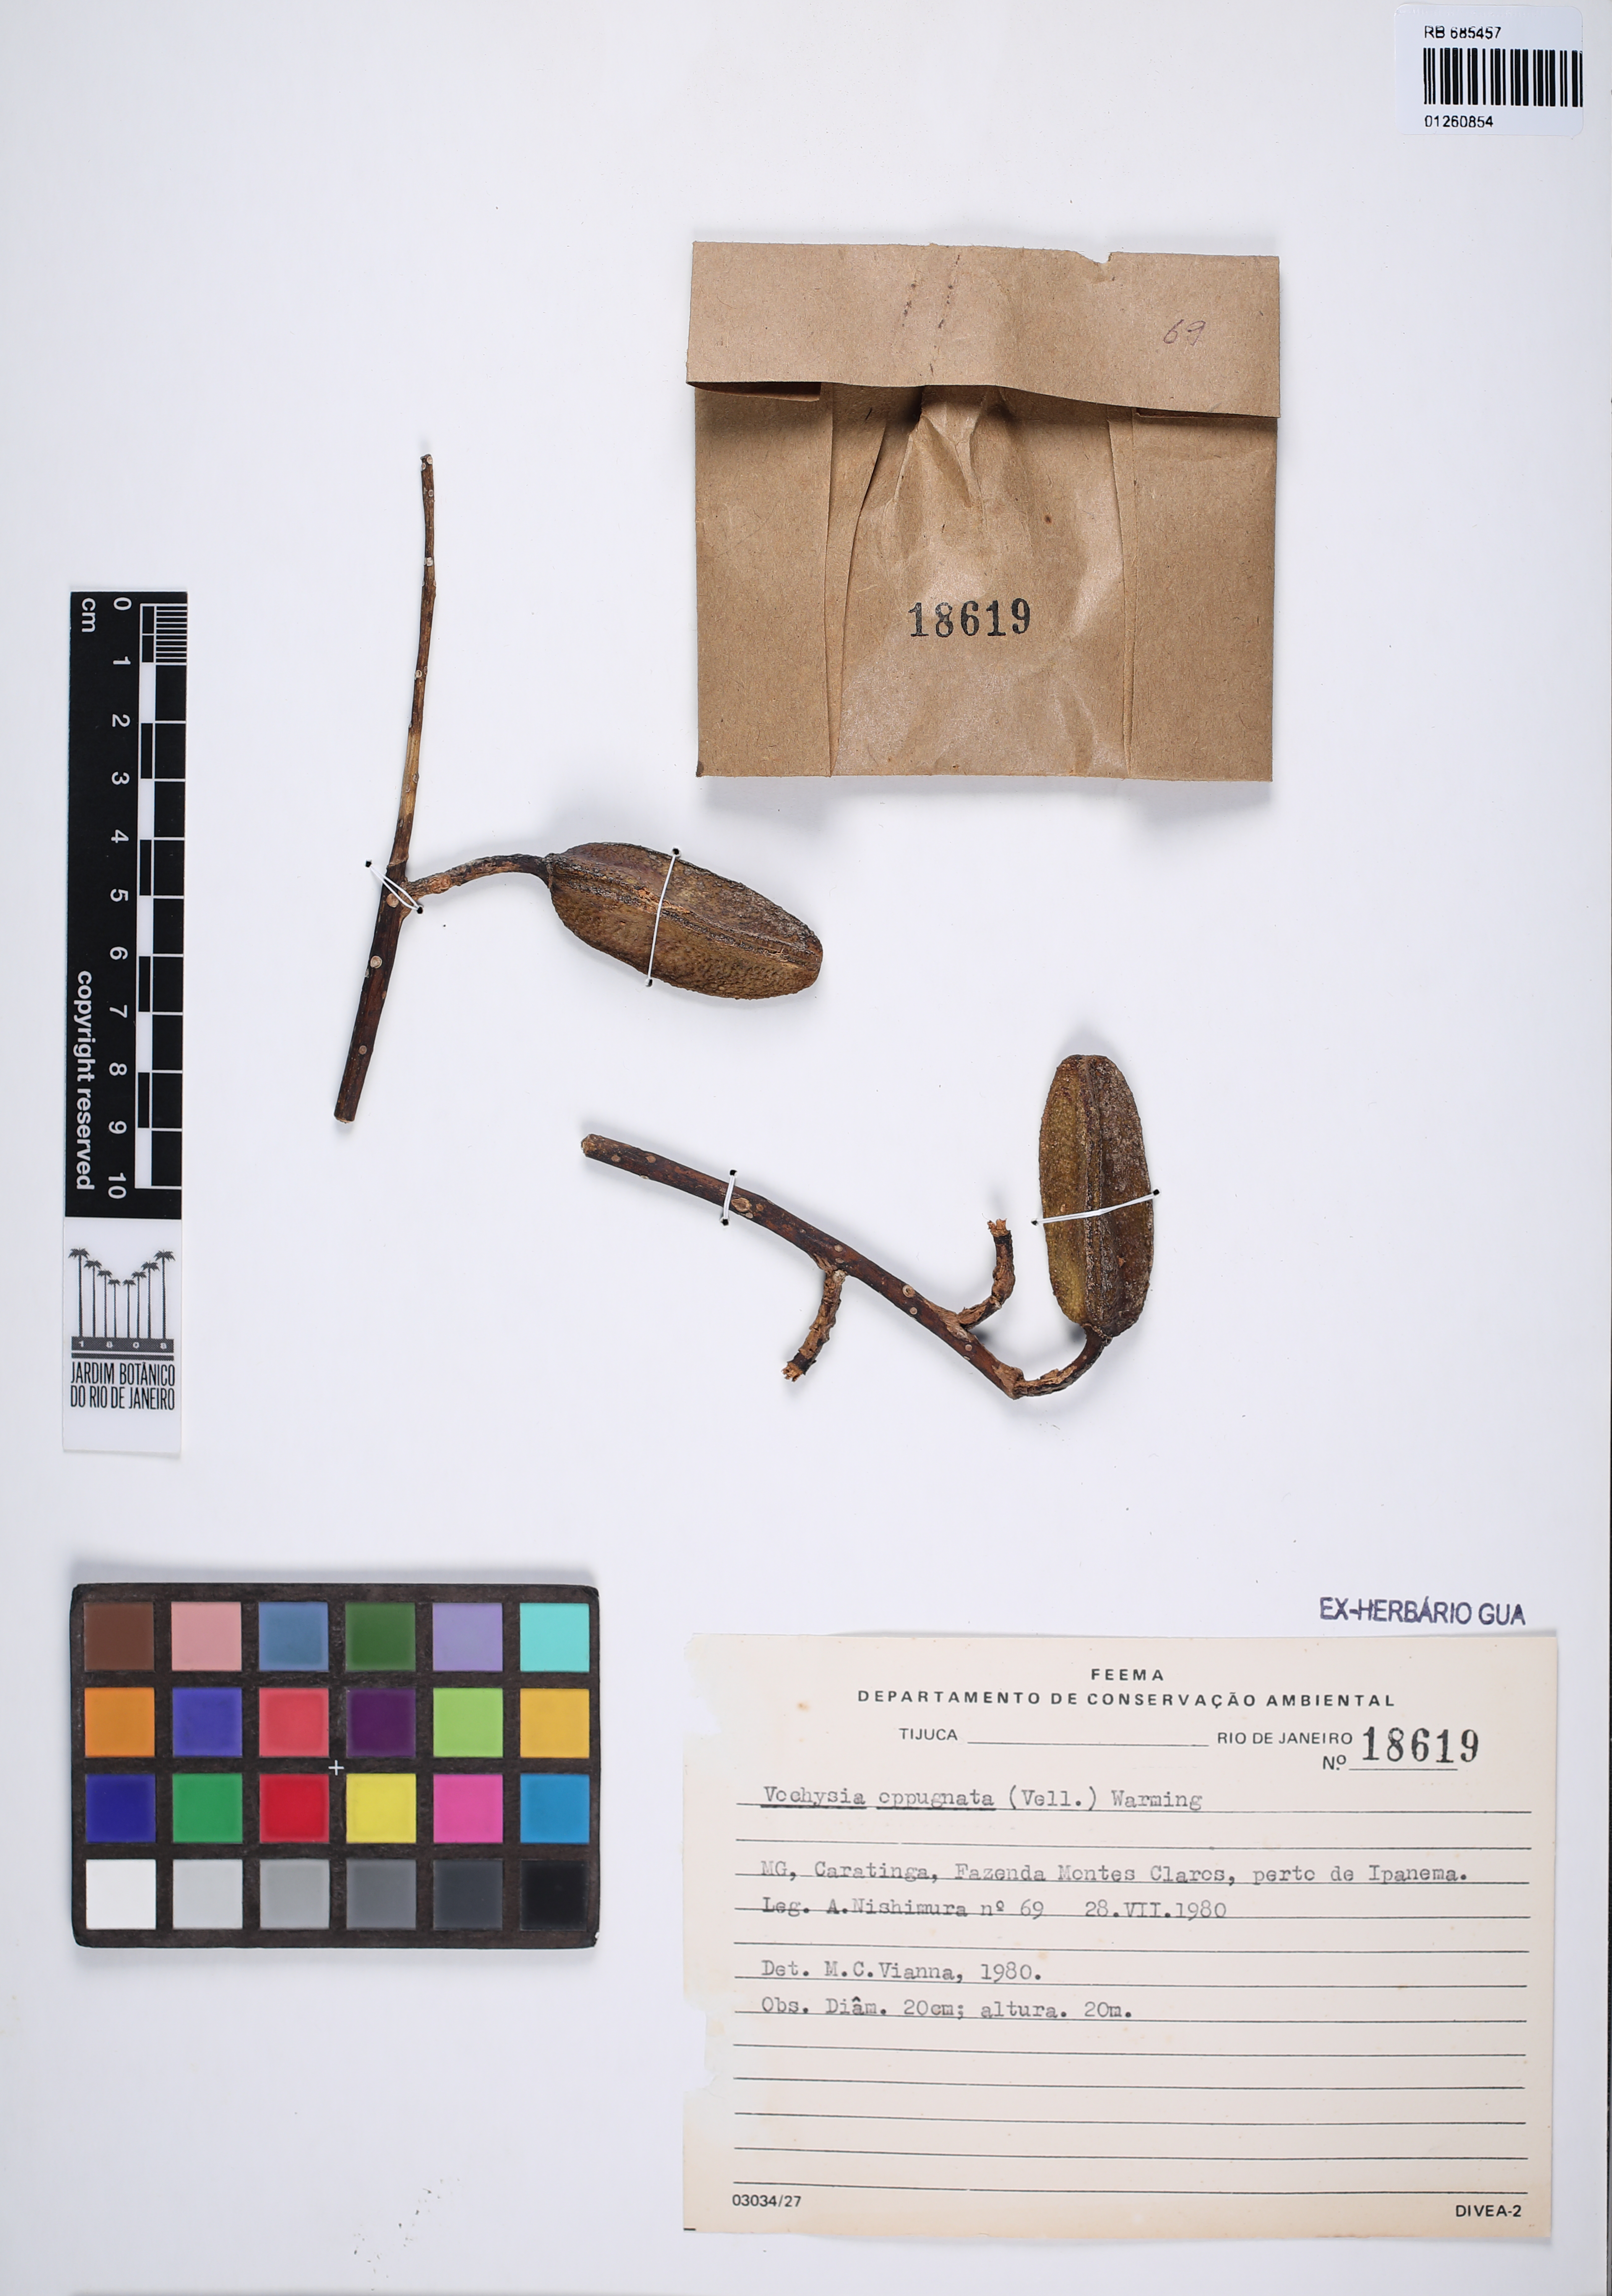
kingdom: Plantae
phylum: Tracheophyta
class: Magnoliopsida
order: Myrtales
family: Vochysiaceae
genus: Vochysia
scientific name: Vochysia oppugnata
